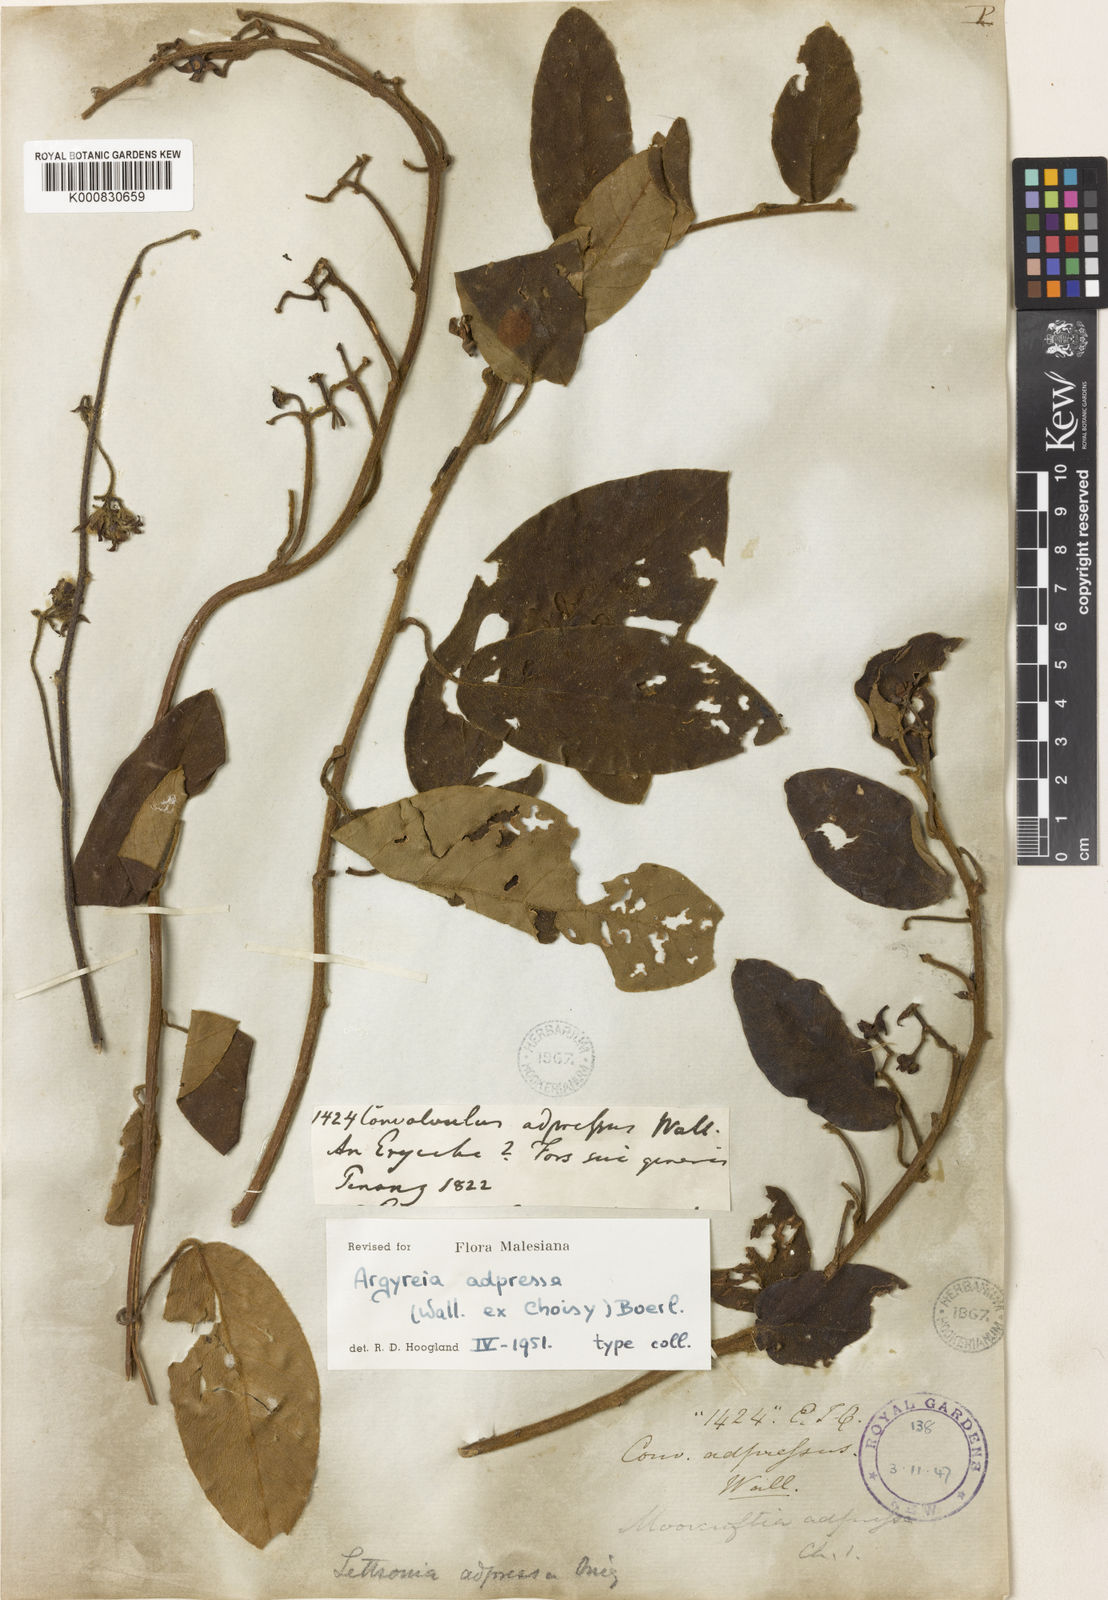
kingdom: Plantae
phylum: Tracheophyta
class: Magnoliopsida
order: Solanales
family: Convolvulaceae
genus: Argyreia
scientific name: Argyreia adpressa
